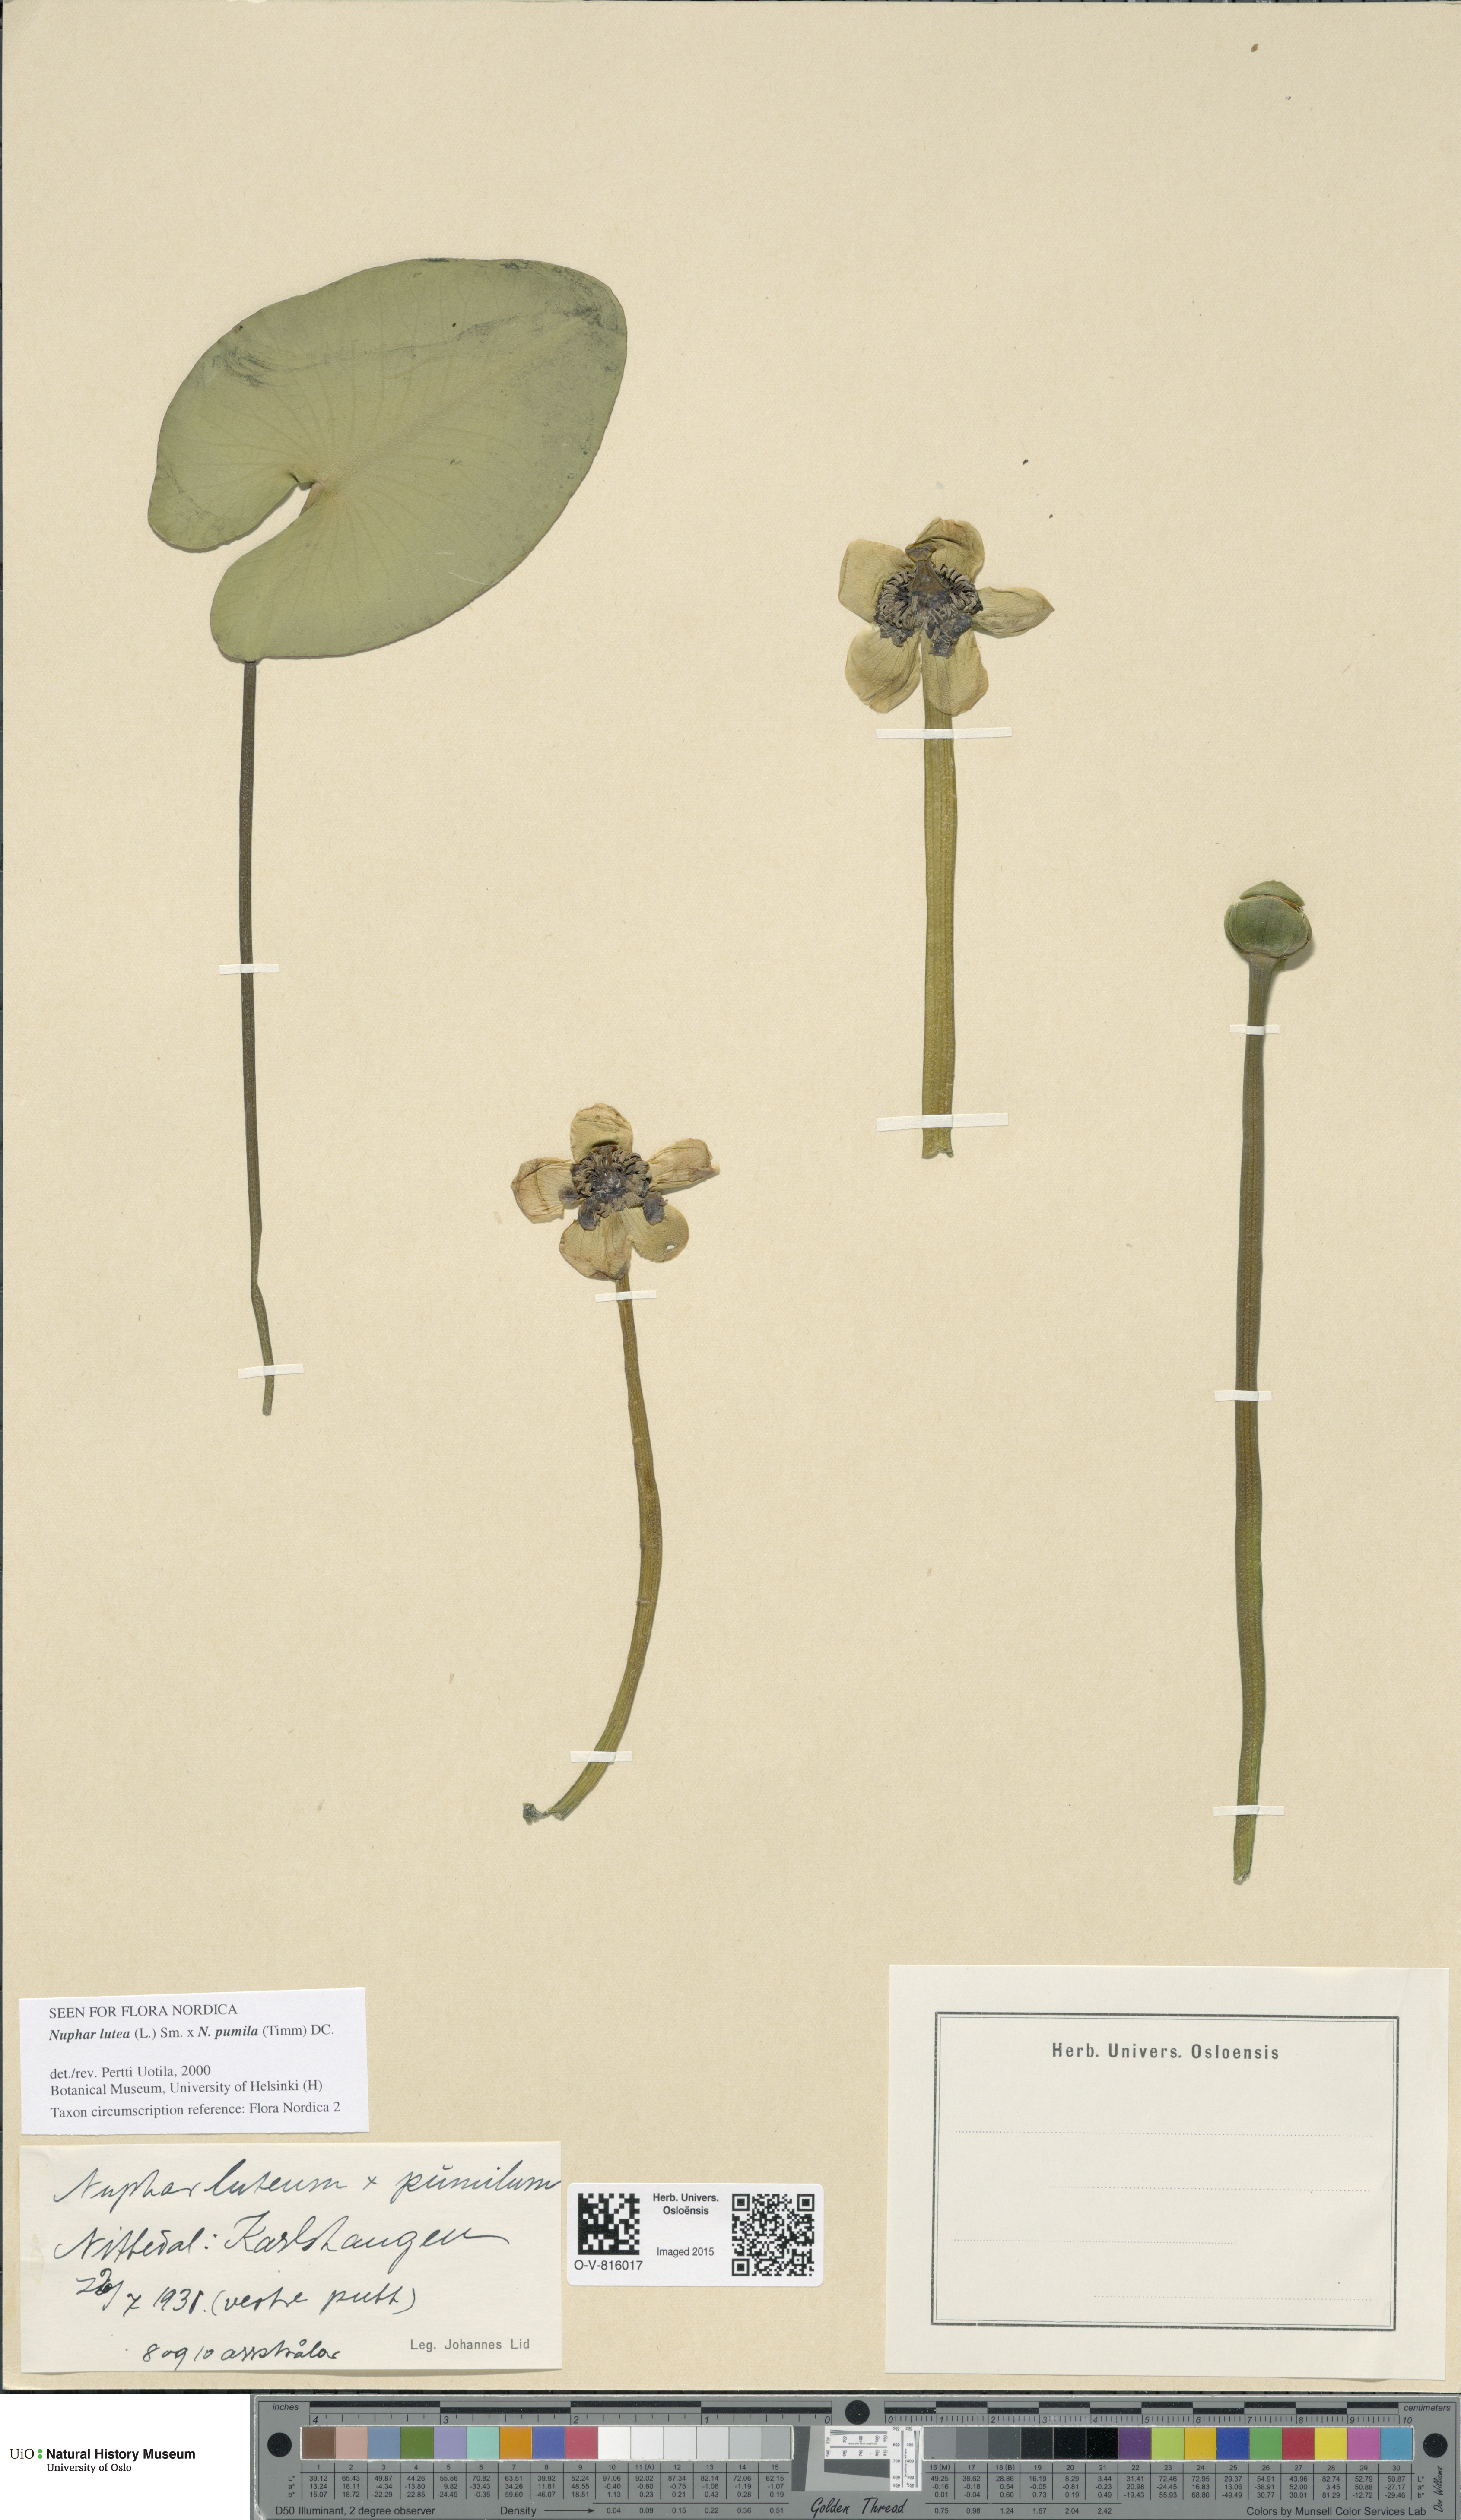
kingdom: Plantae
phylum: Tracheophyta
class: Magnoliopsida
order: Nymphaeales
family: Nymphaeaceae
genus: Nuphar
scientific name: Nuphar
